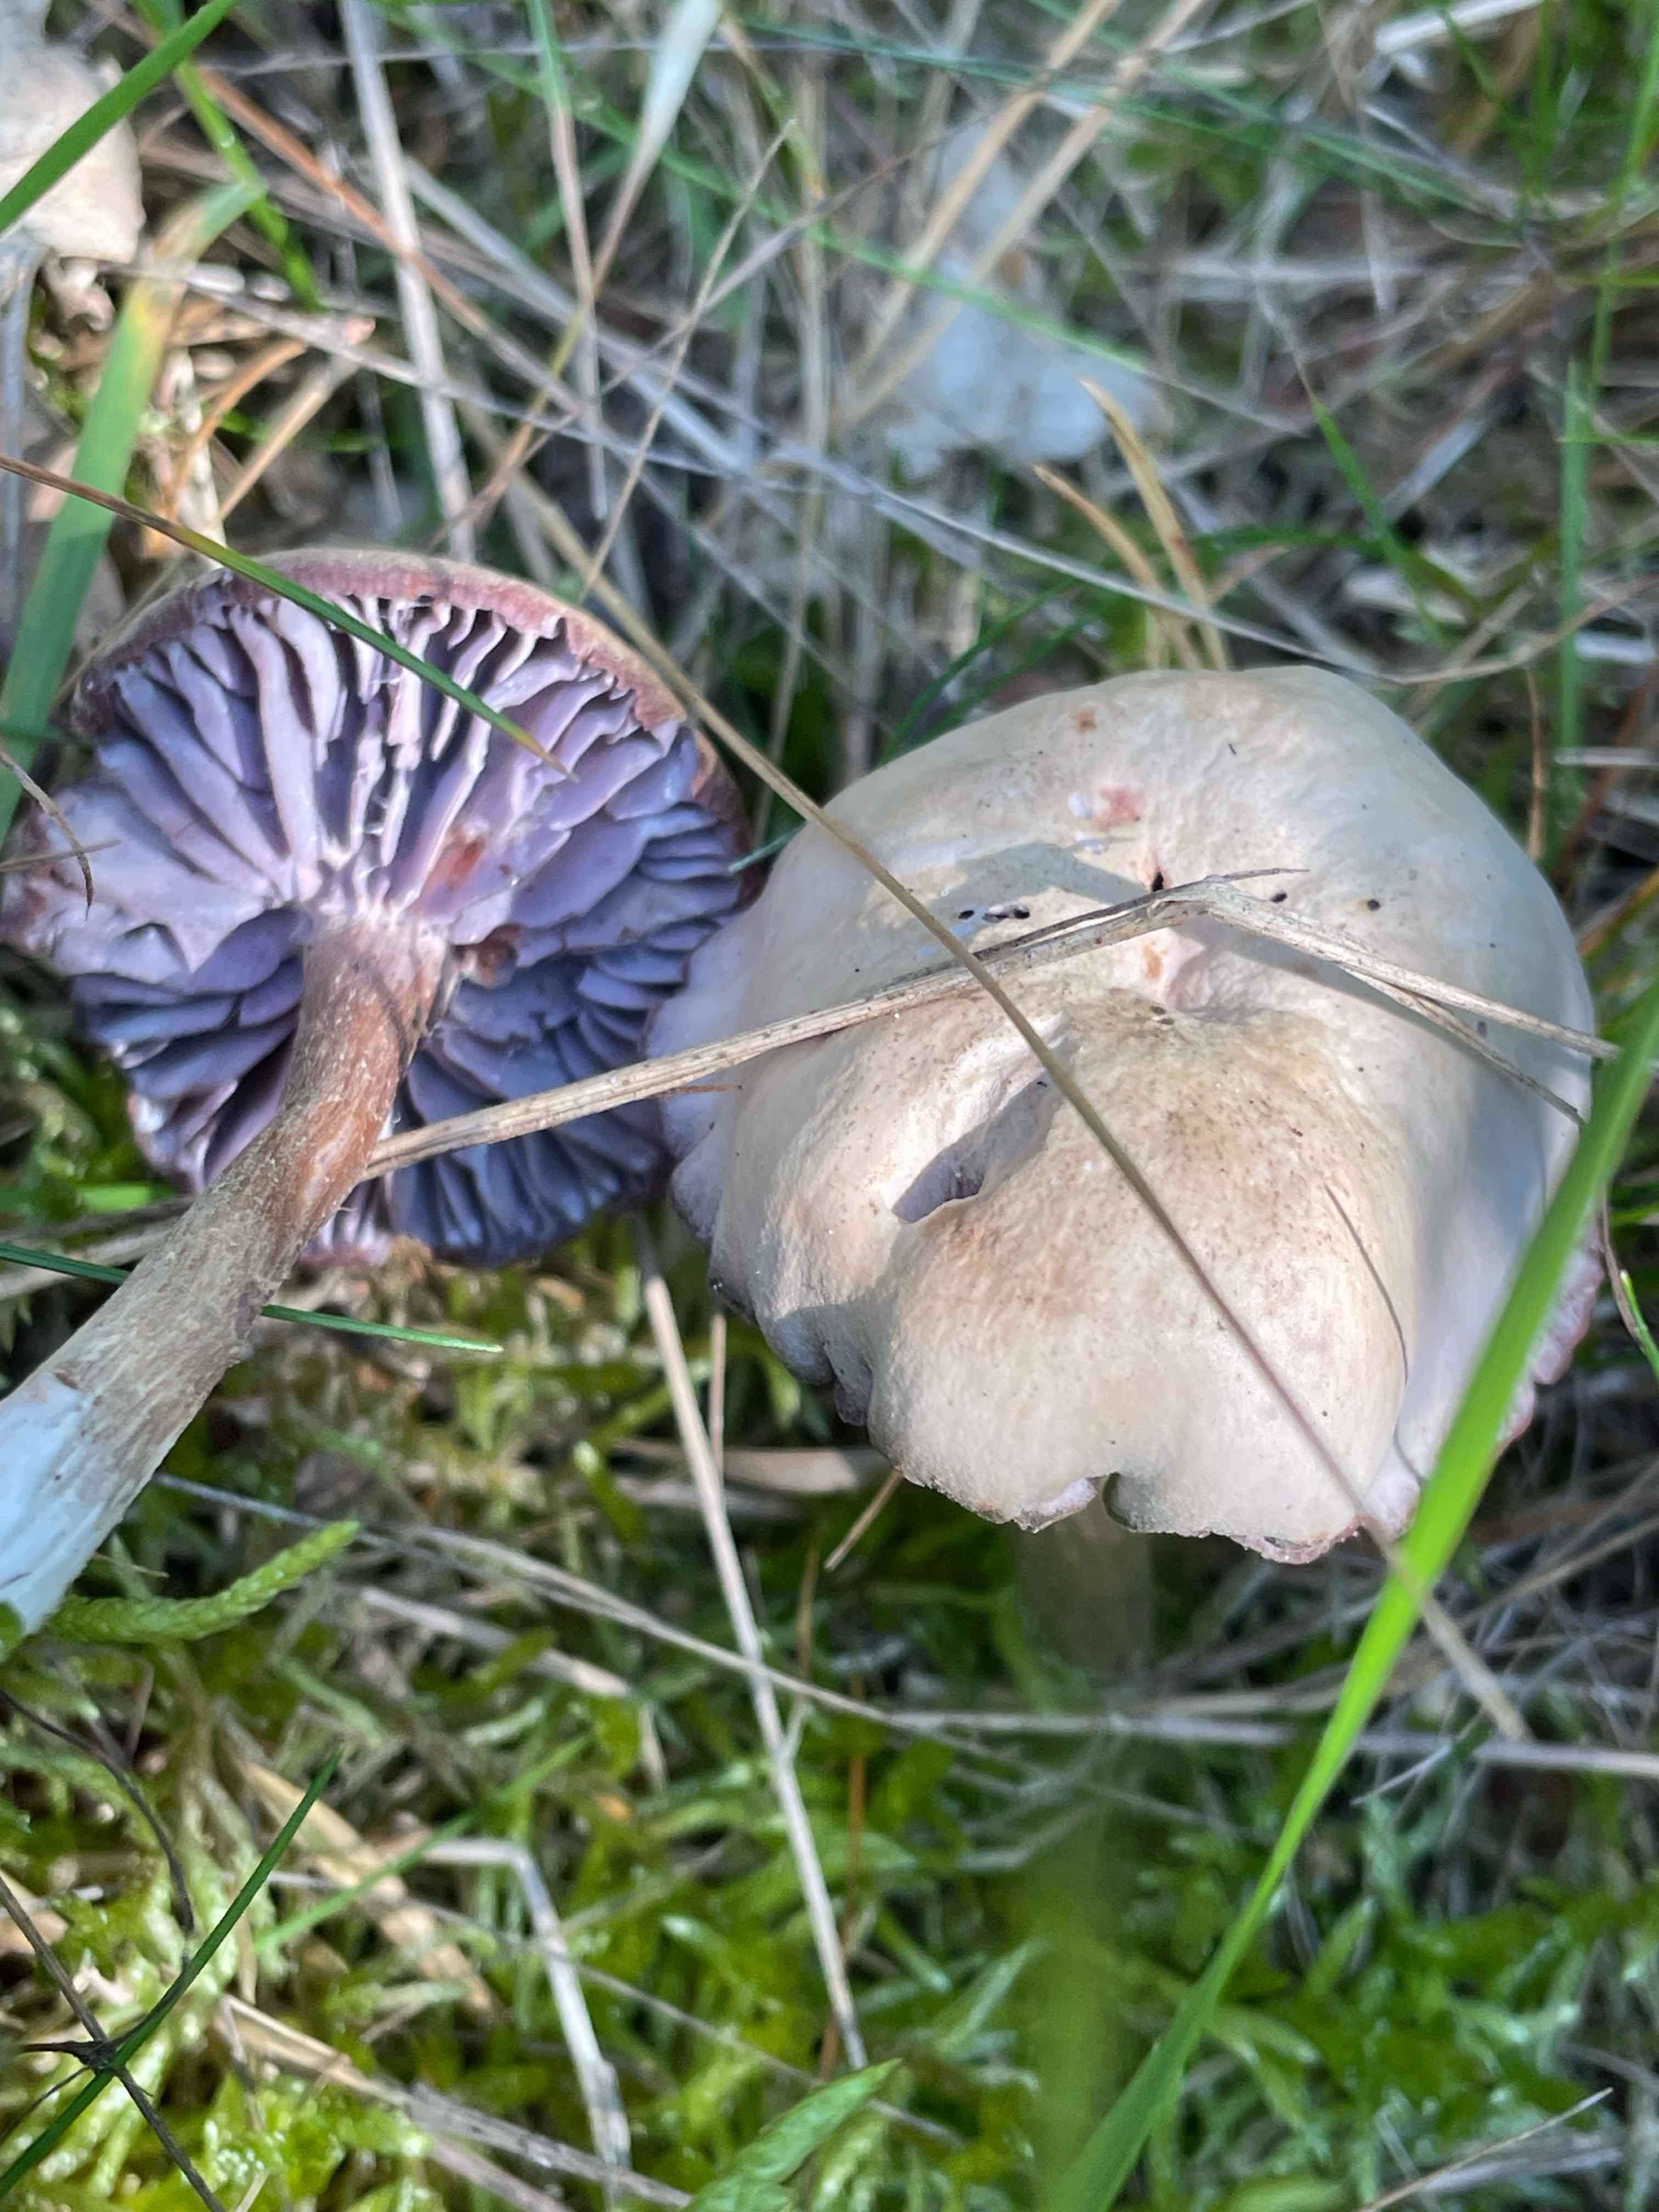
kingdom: Fungi
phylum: Basidiomycota
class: Agaricomycetes
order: Agaricales
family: Hydnangiaceae
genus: Laccaria
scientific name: Laccaria amethystina
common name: violet ametysthat
